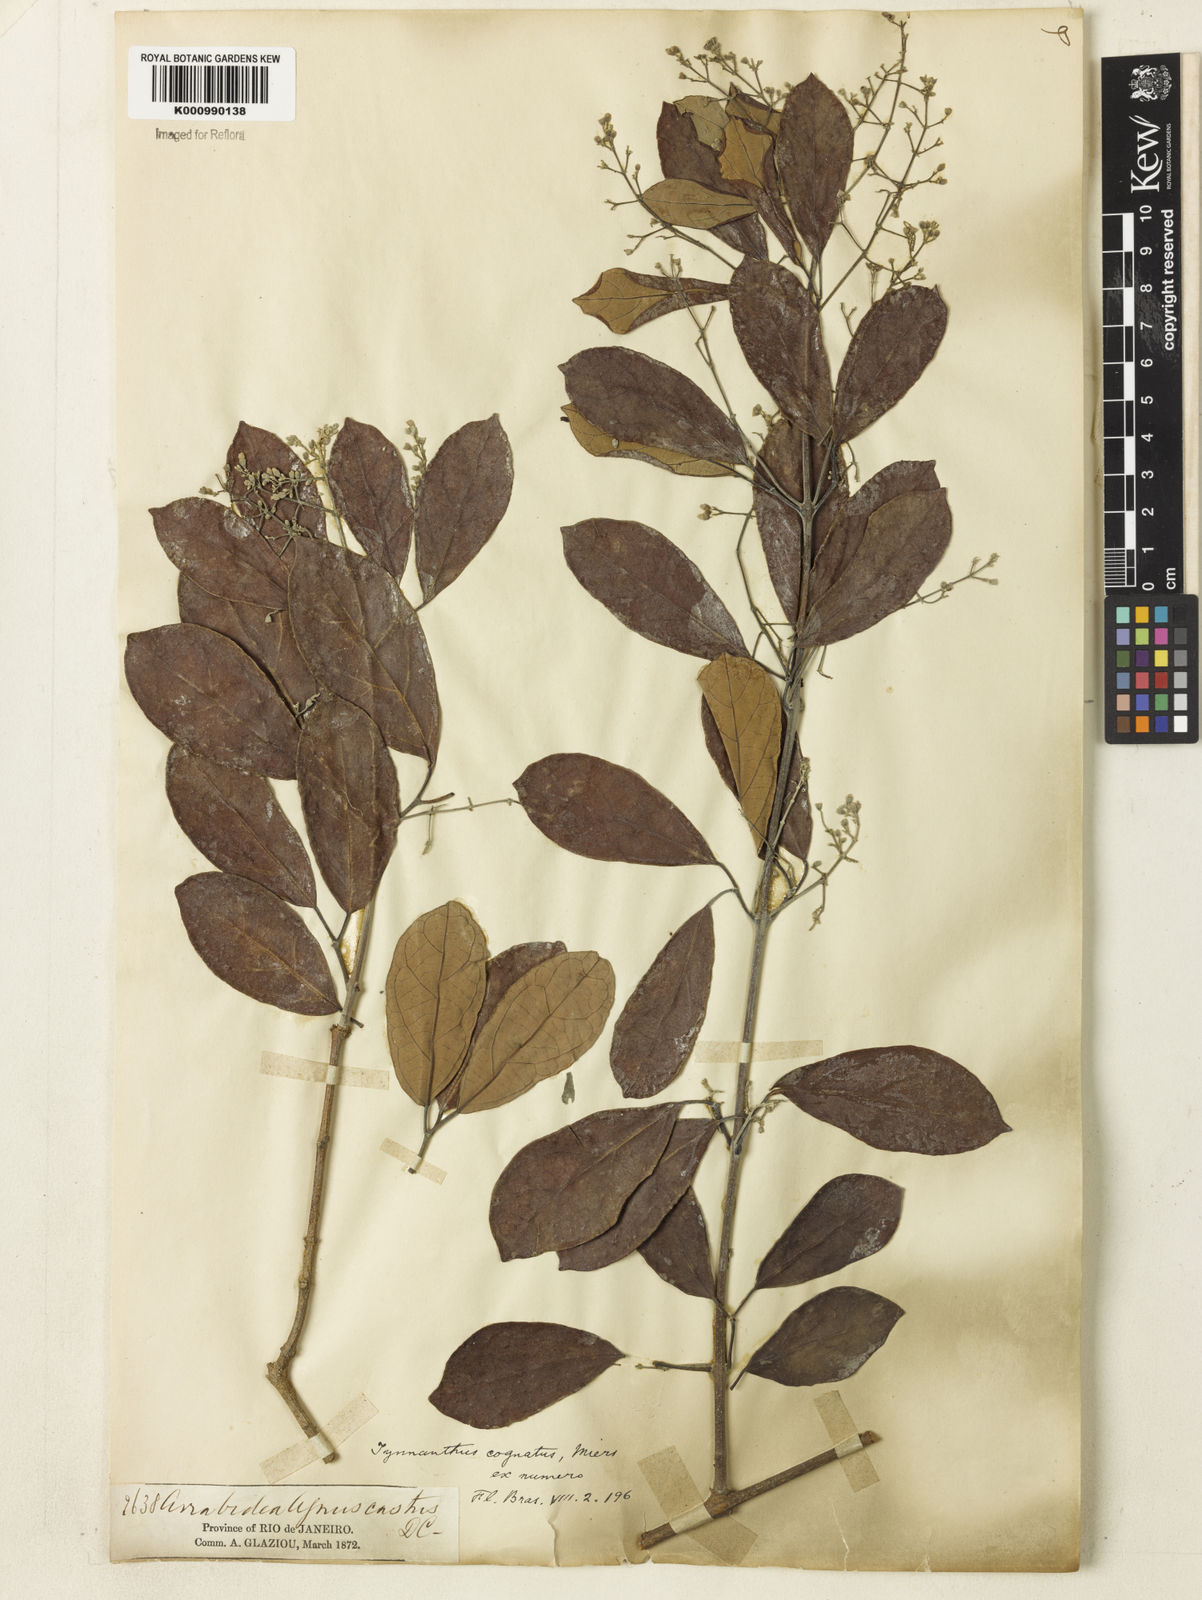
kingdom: Plantae
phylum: Tracheophyta
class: Magnoliopsida
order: Lamiales
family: Bignoniaceae
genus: Tynanthus
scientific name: Tynanthus cognatus
